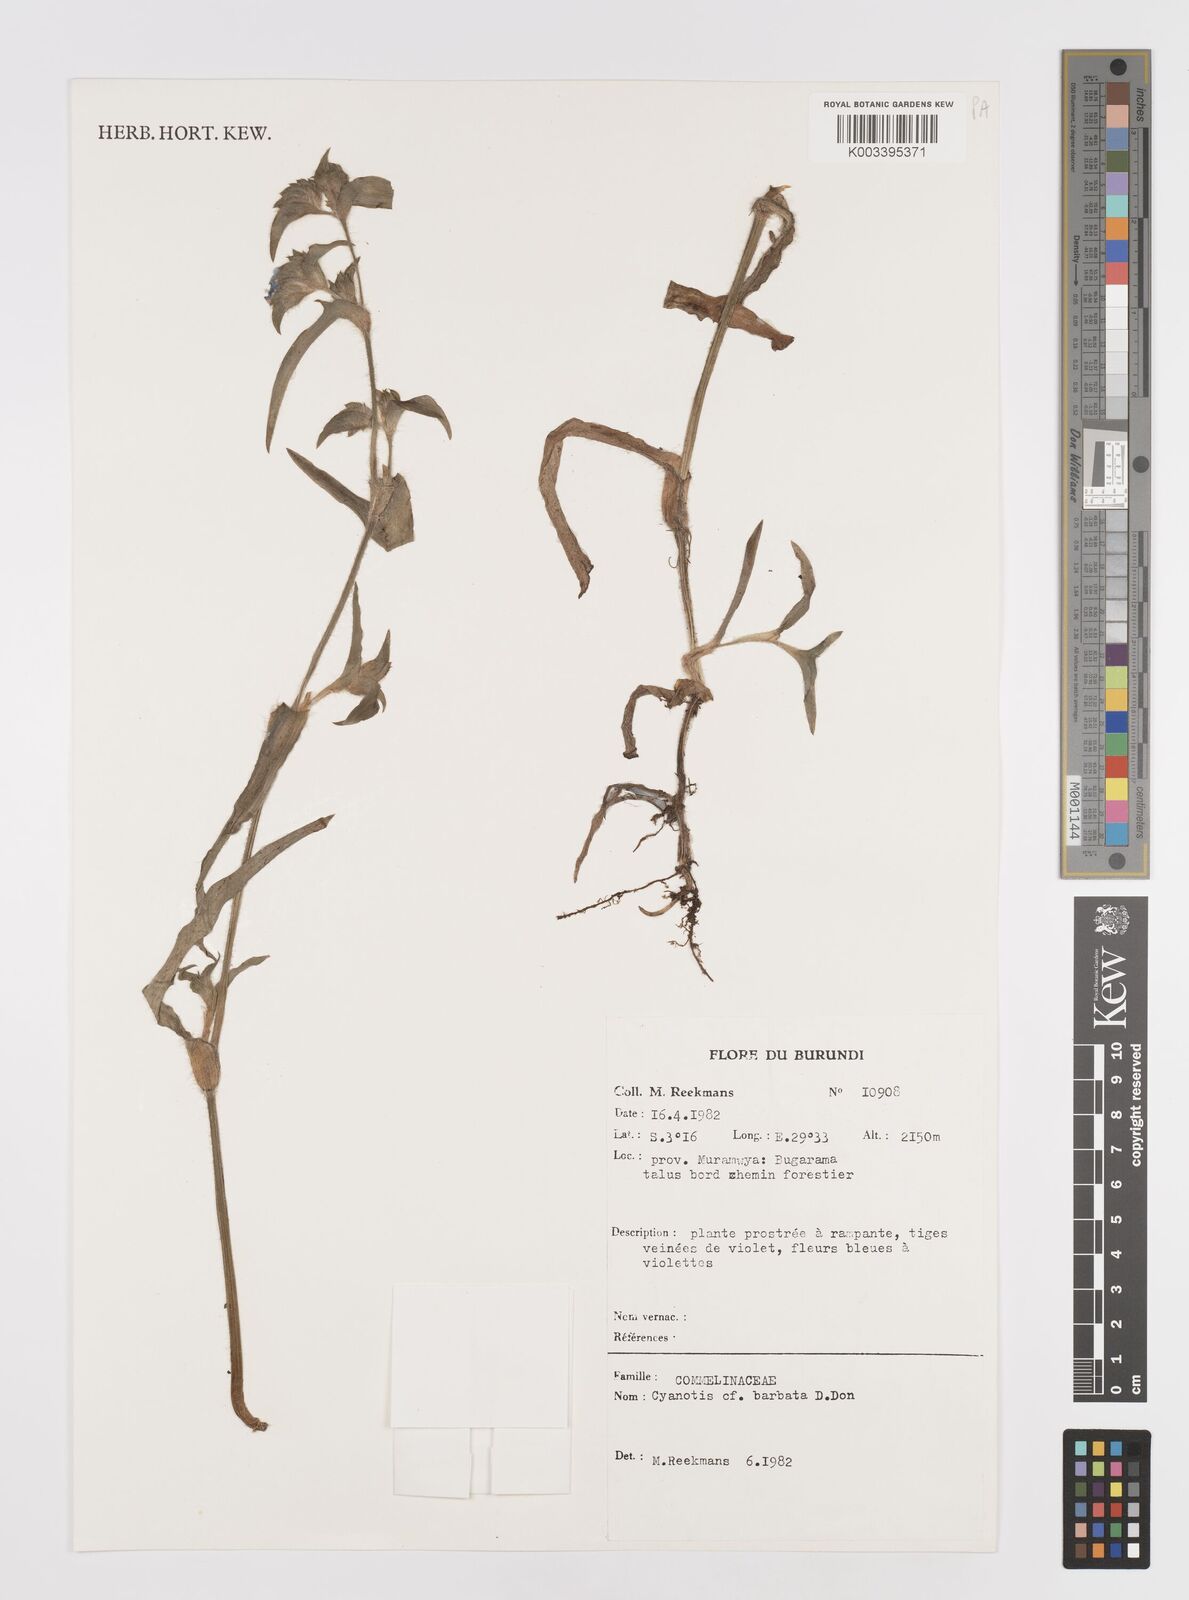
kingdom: Plantae
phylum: Tracheophyta
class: Liliopsida
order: Commelinales
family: Commelinaceae
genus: Cyanotis
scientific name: Cyanotis vaga
